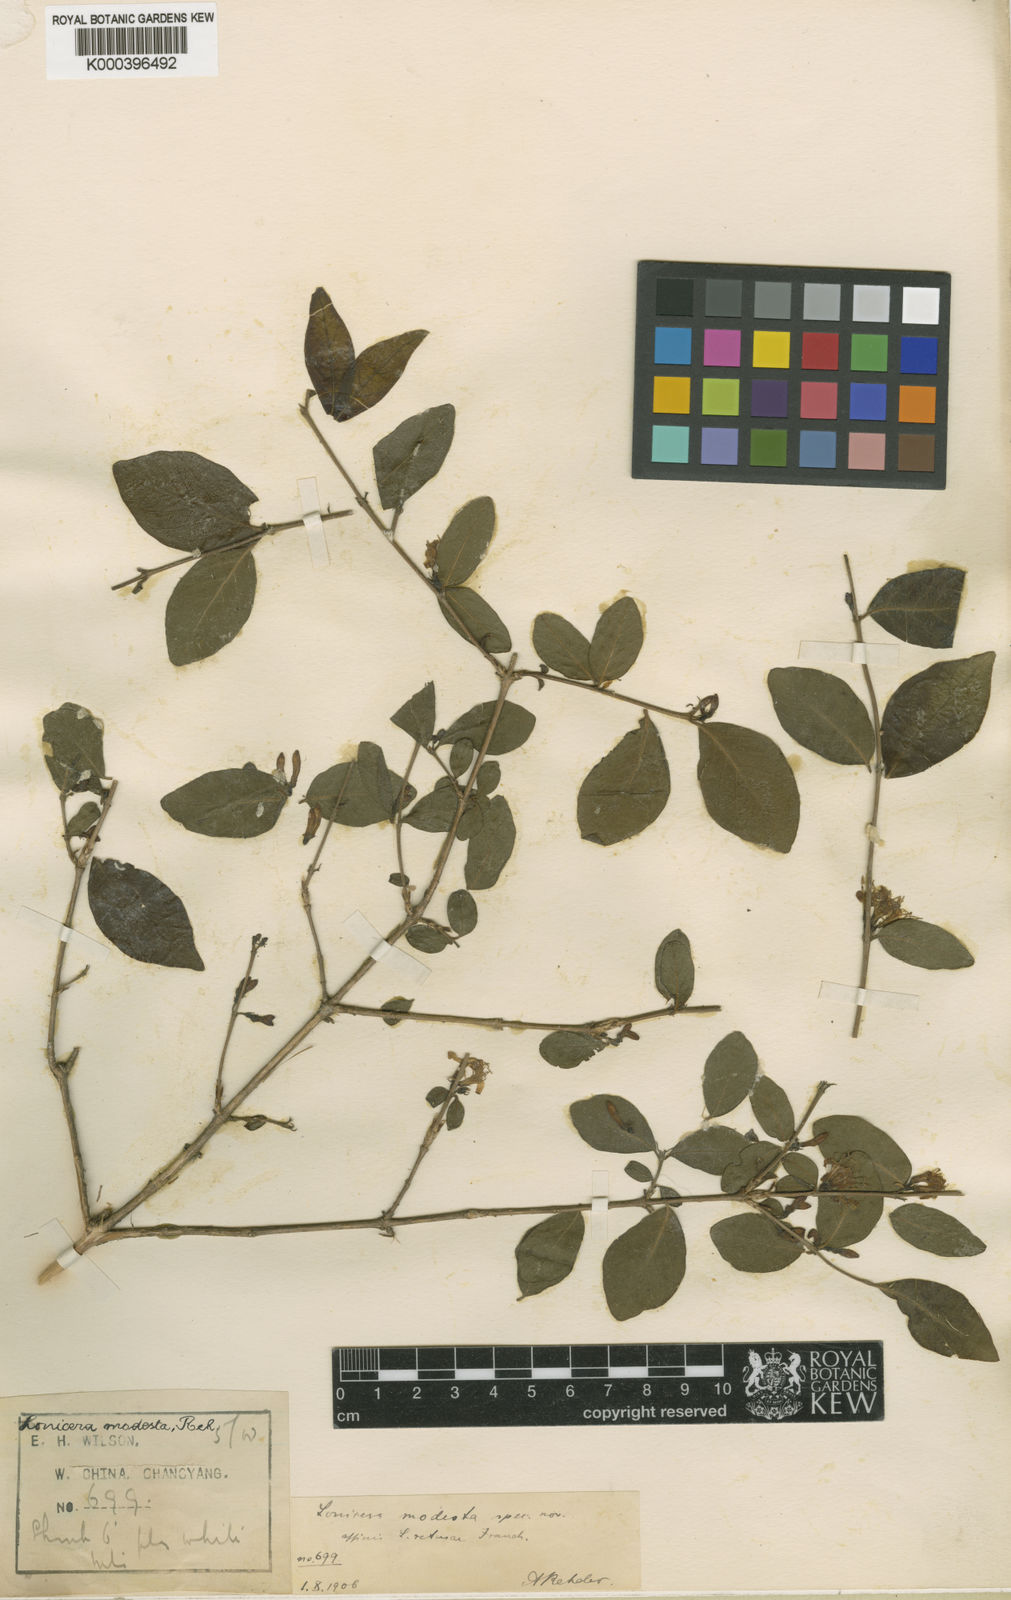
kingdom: Plantae
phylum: Tracheophyta
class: Magnoliopsida
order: Dipsacales
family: Caprifoliaceae
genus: Lonicera
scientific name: Lonicera modesta
